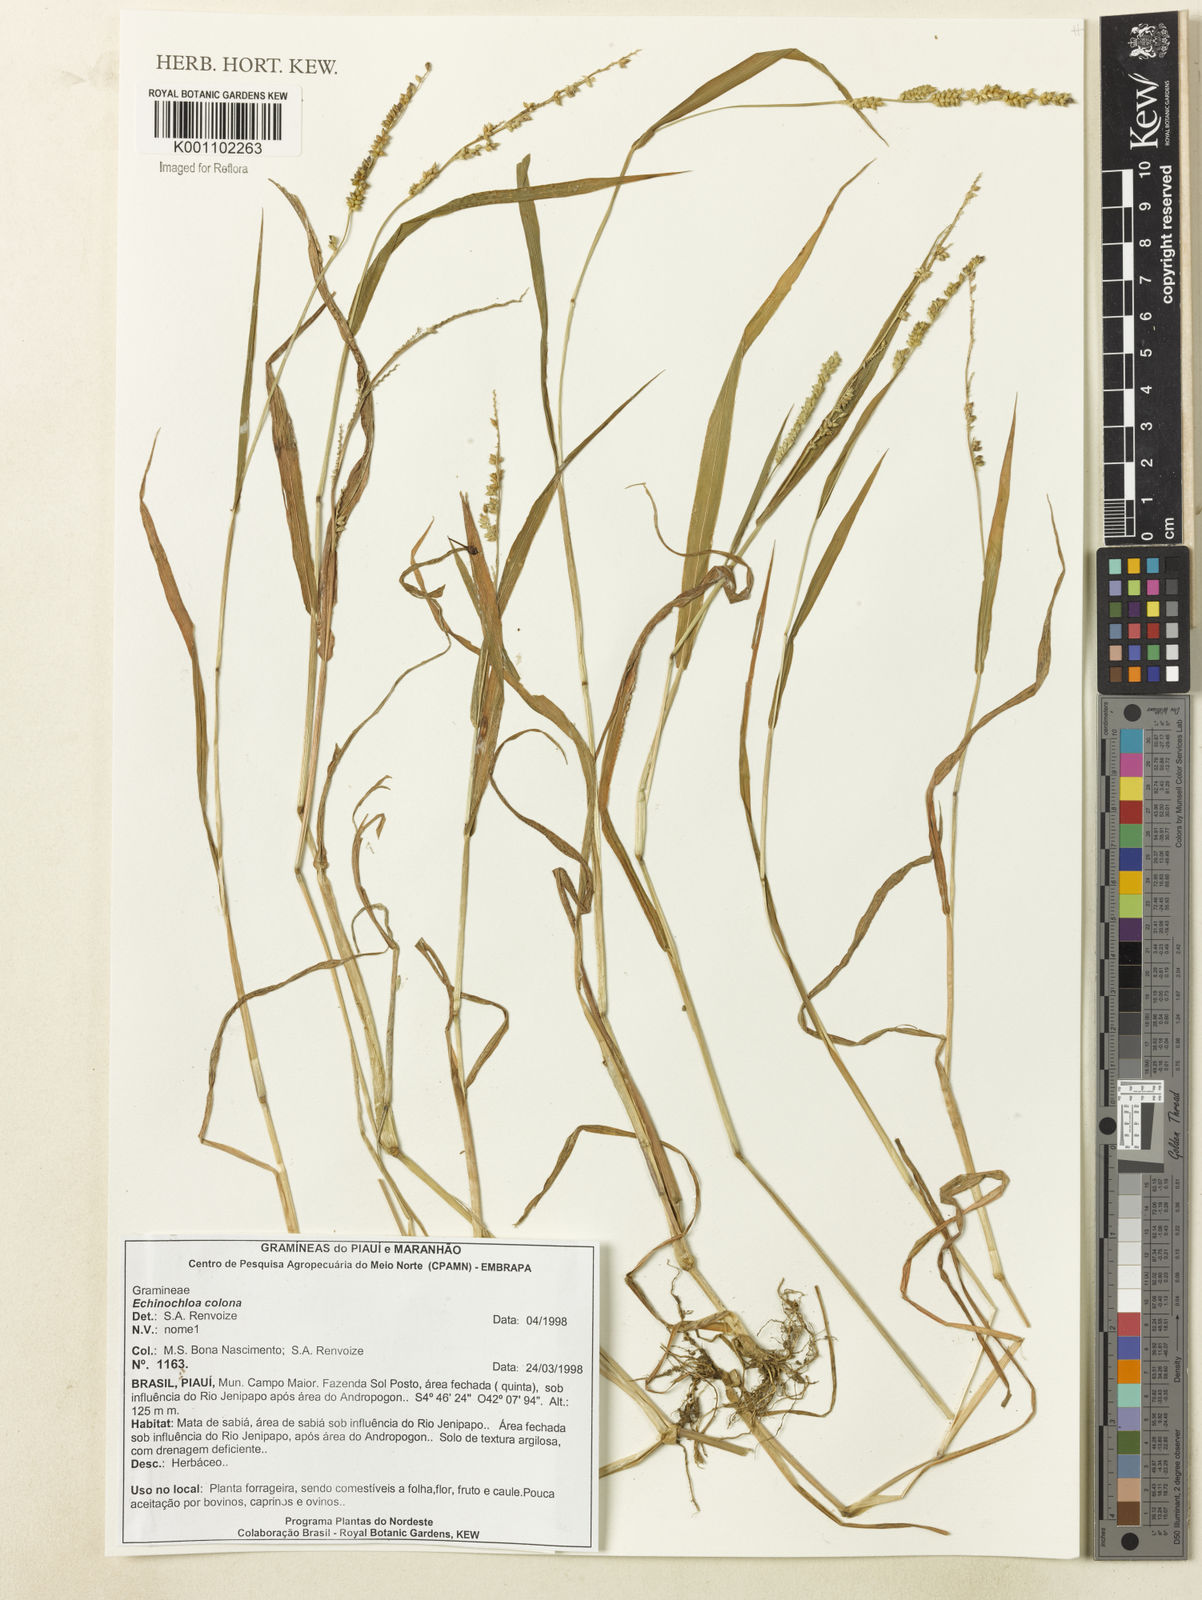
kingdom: Plantae
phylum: Tracheophyta
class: Liliopsida
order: Poales
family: Poaceae
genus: Echinochloa
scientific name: Echinochloa colonum
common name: Jungle rice
